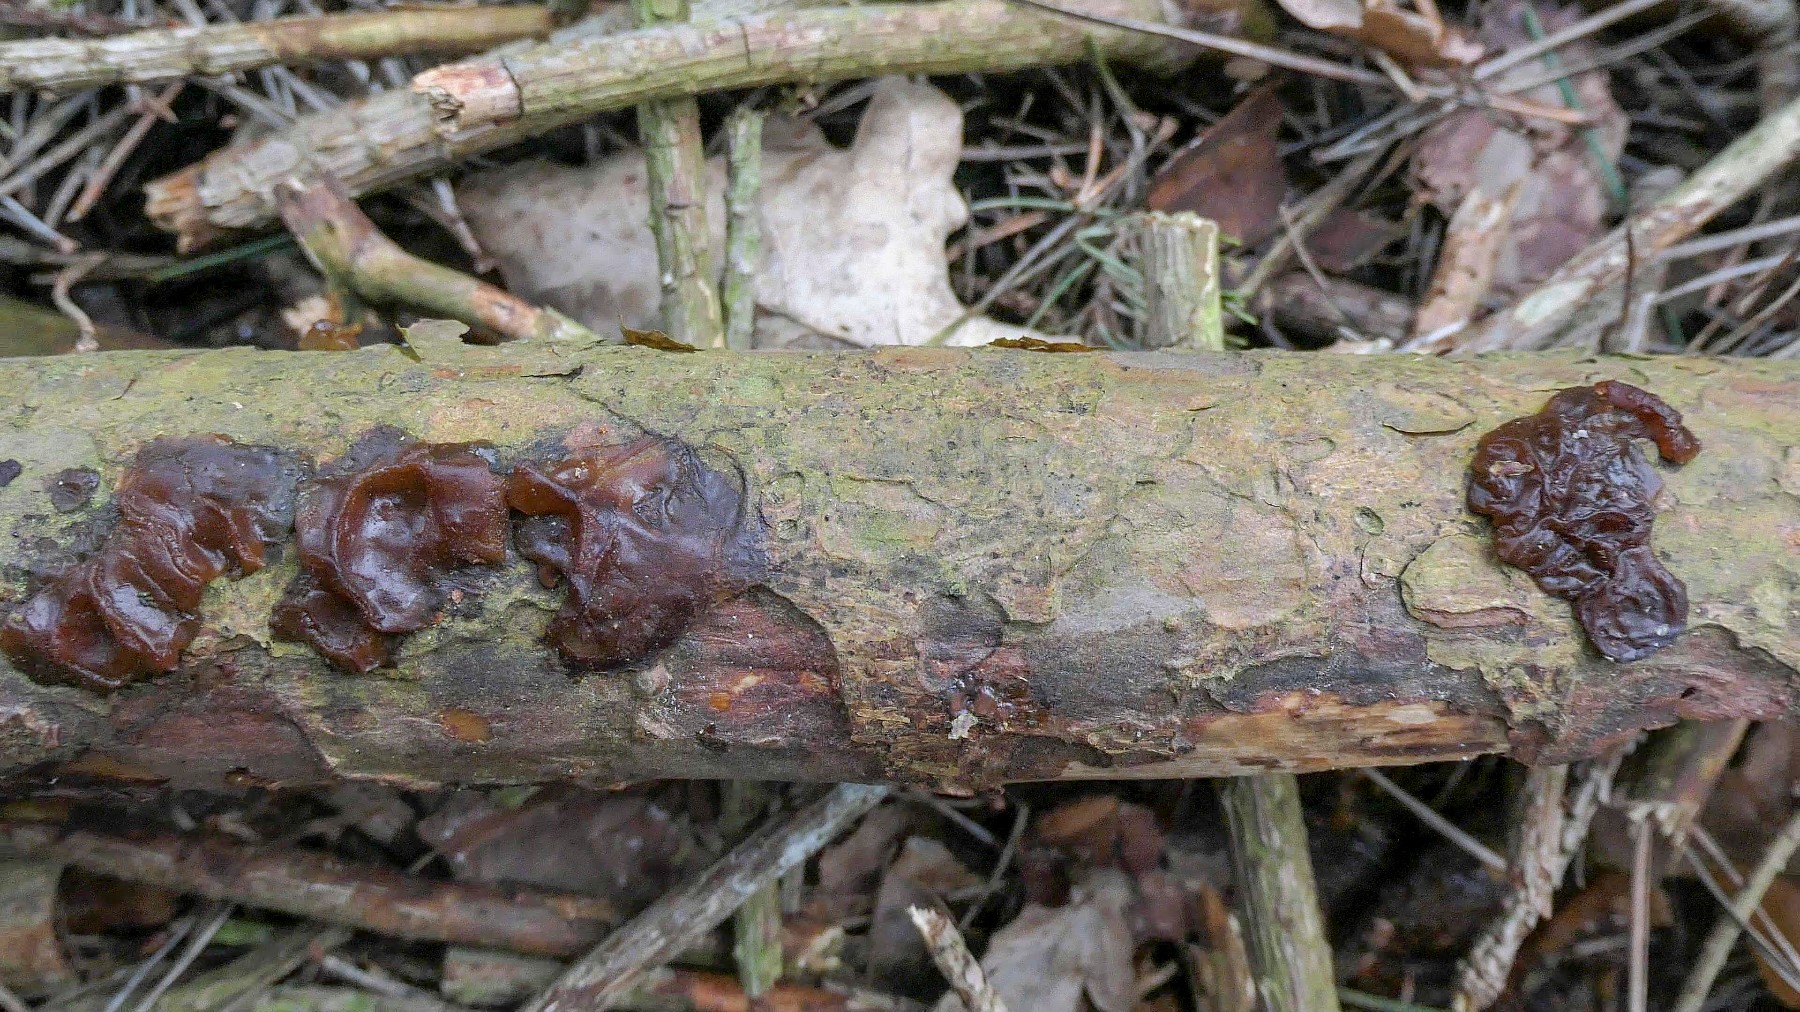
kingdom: Fungi
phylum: Basidiomycota
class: Agaricomycetes
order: Auriculariales
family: Auriculariaceae
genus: Exidia
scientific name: Exidia saccharina
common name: kandis-bævretop
